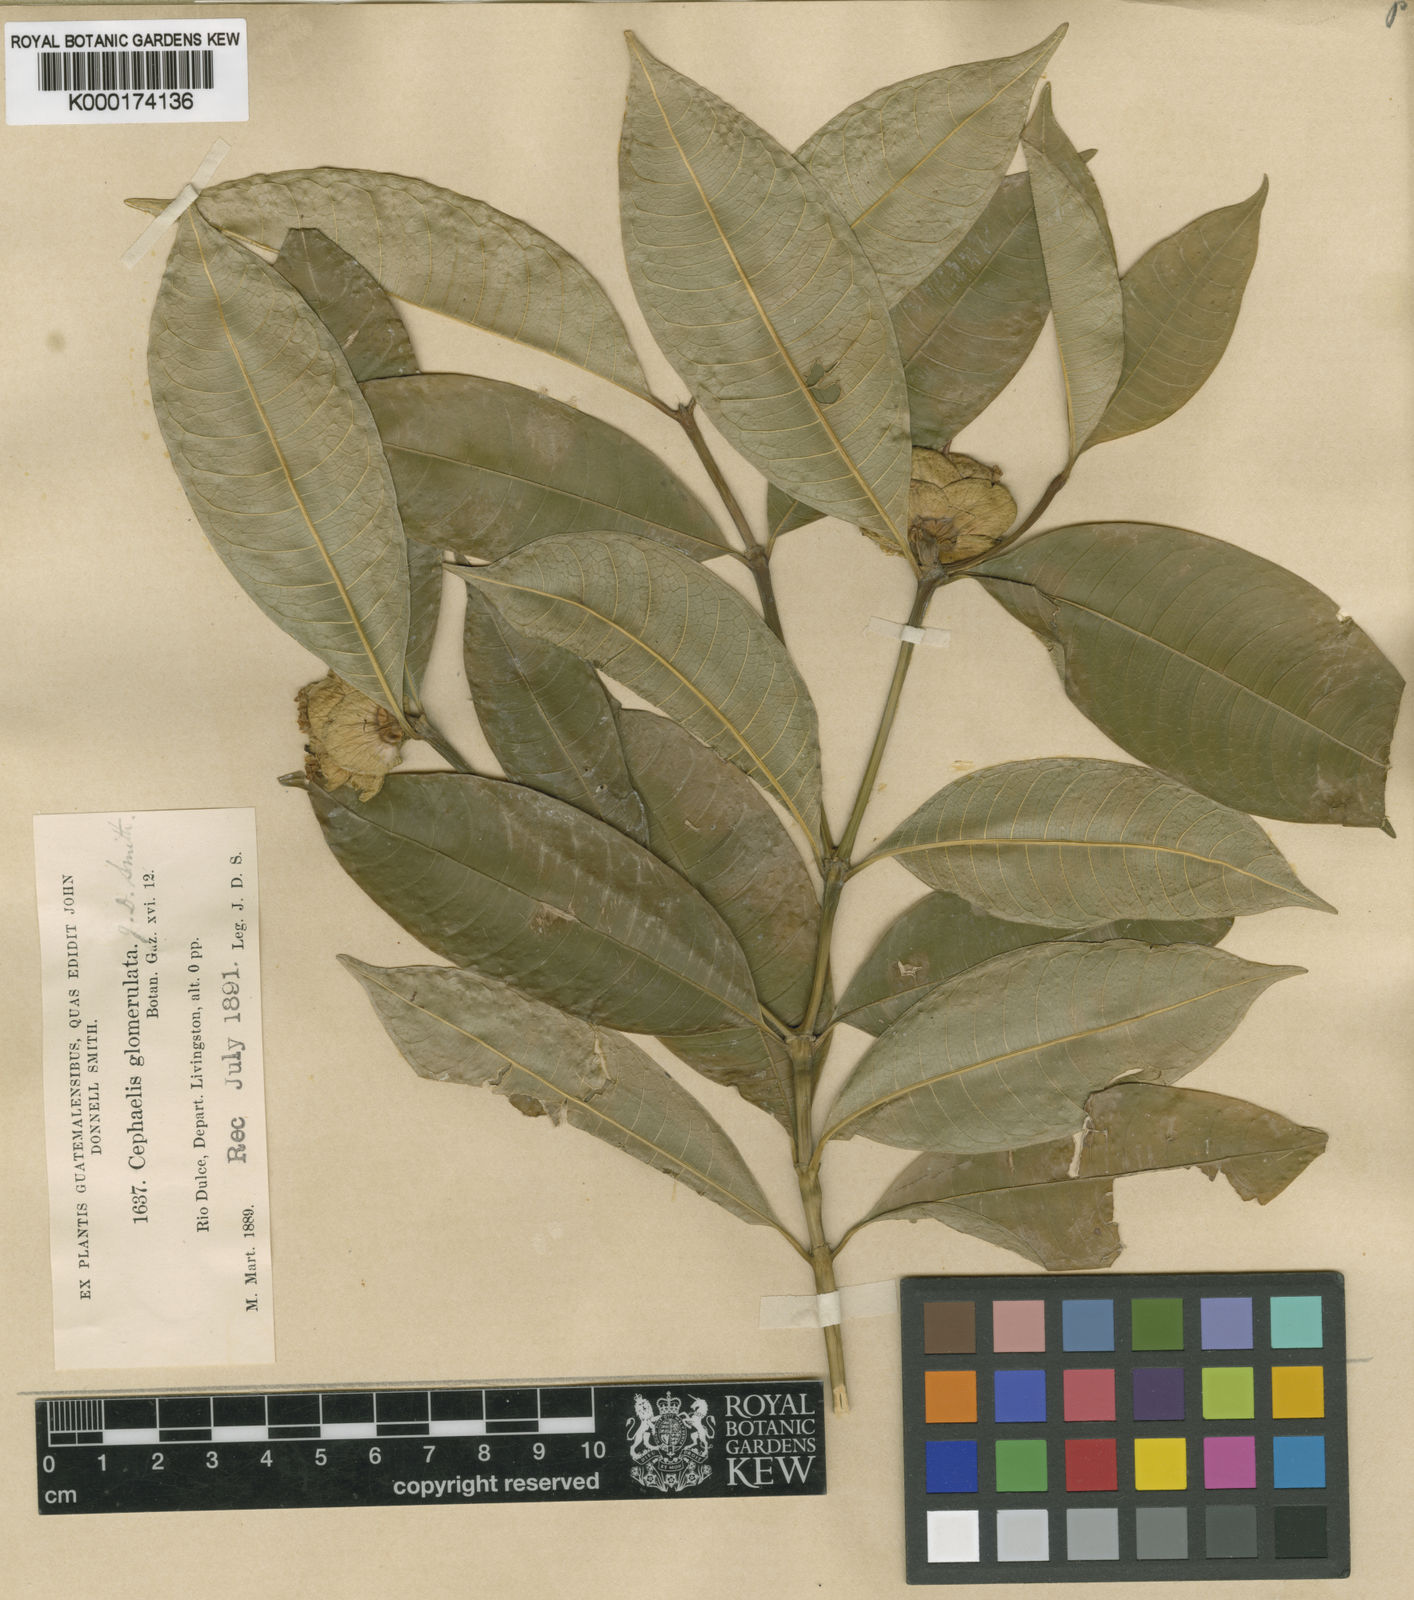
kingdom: Plantae
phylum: Tracheophyta
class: Magnoliopsida
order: Gentianales
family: Rubiaceae
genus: Palicourea
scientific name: Palicourea glomerulata
